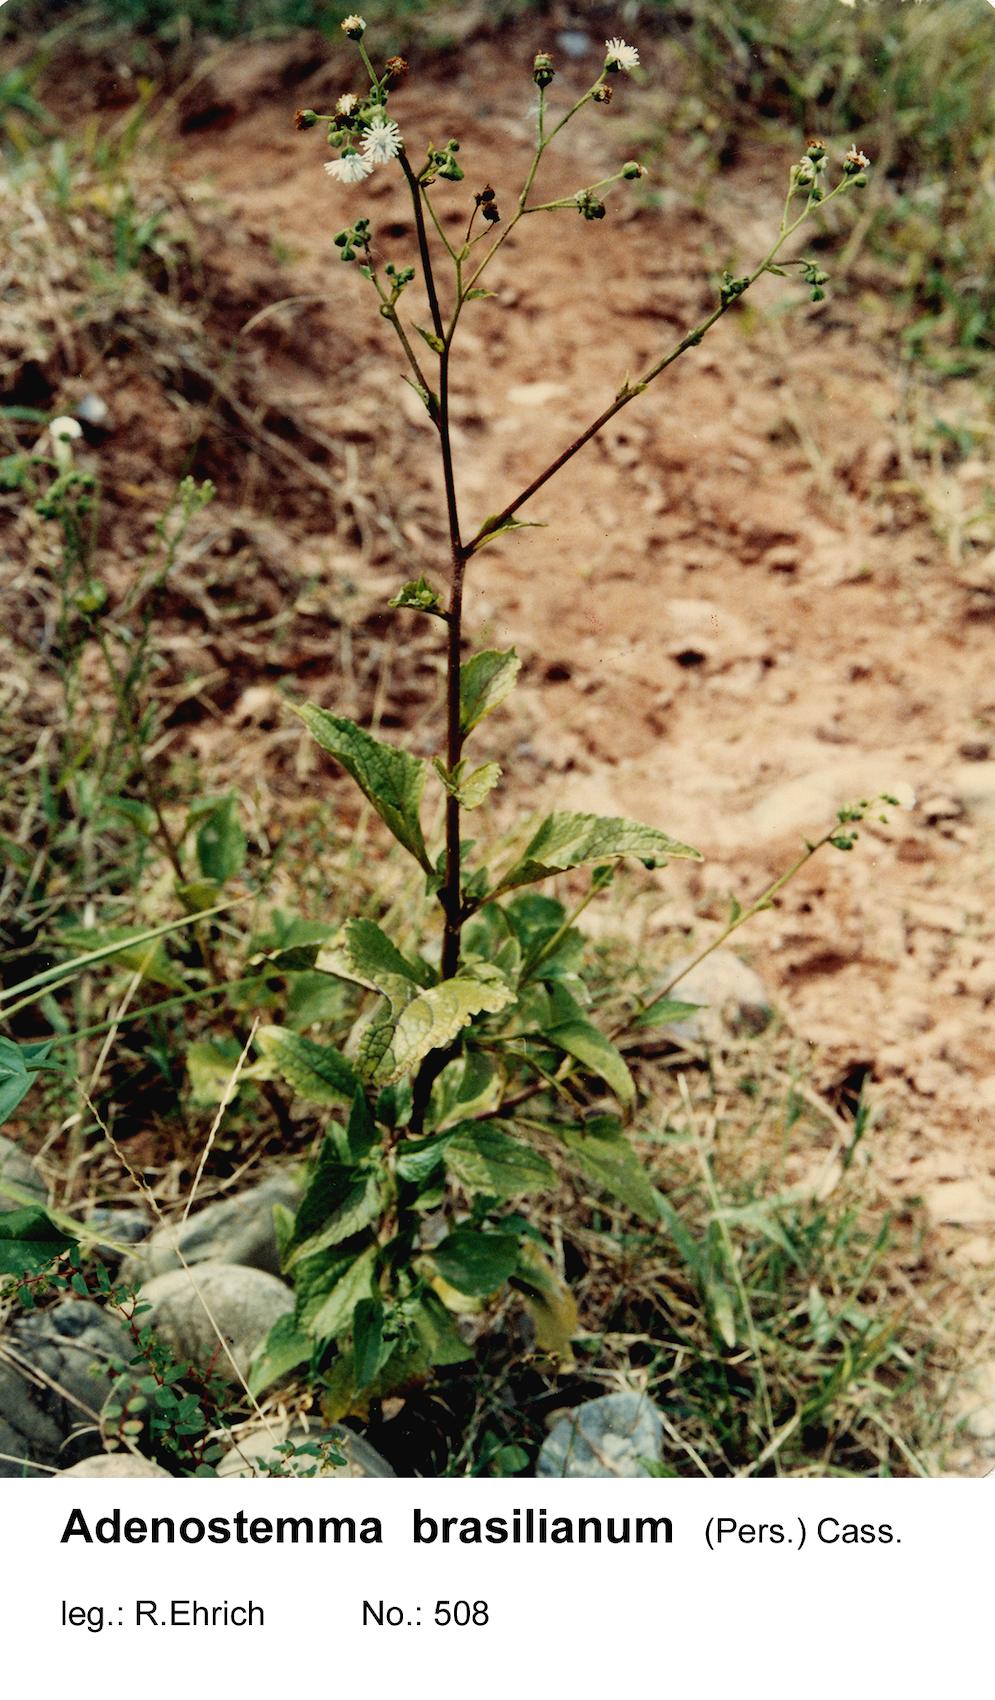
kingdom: Plantae
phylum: Tracheophyta
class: Magnoliopsida
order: Asterales
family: Asteraceae
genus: Adenostemma
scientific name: Adenostemma brasilianum
